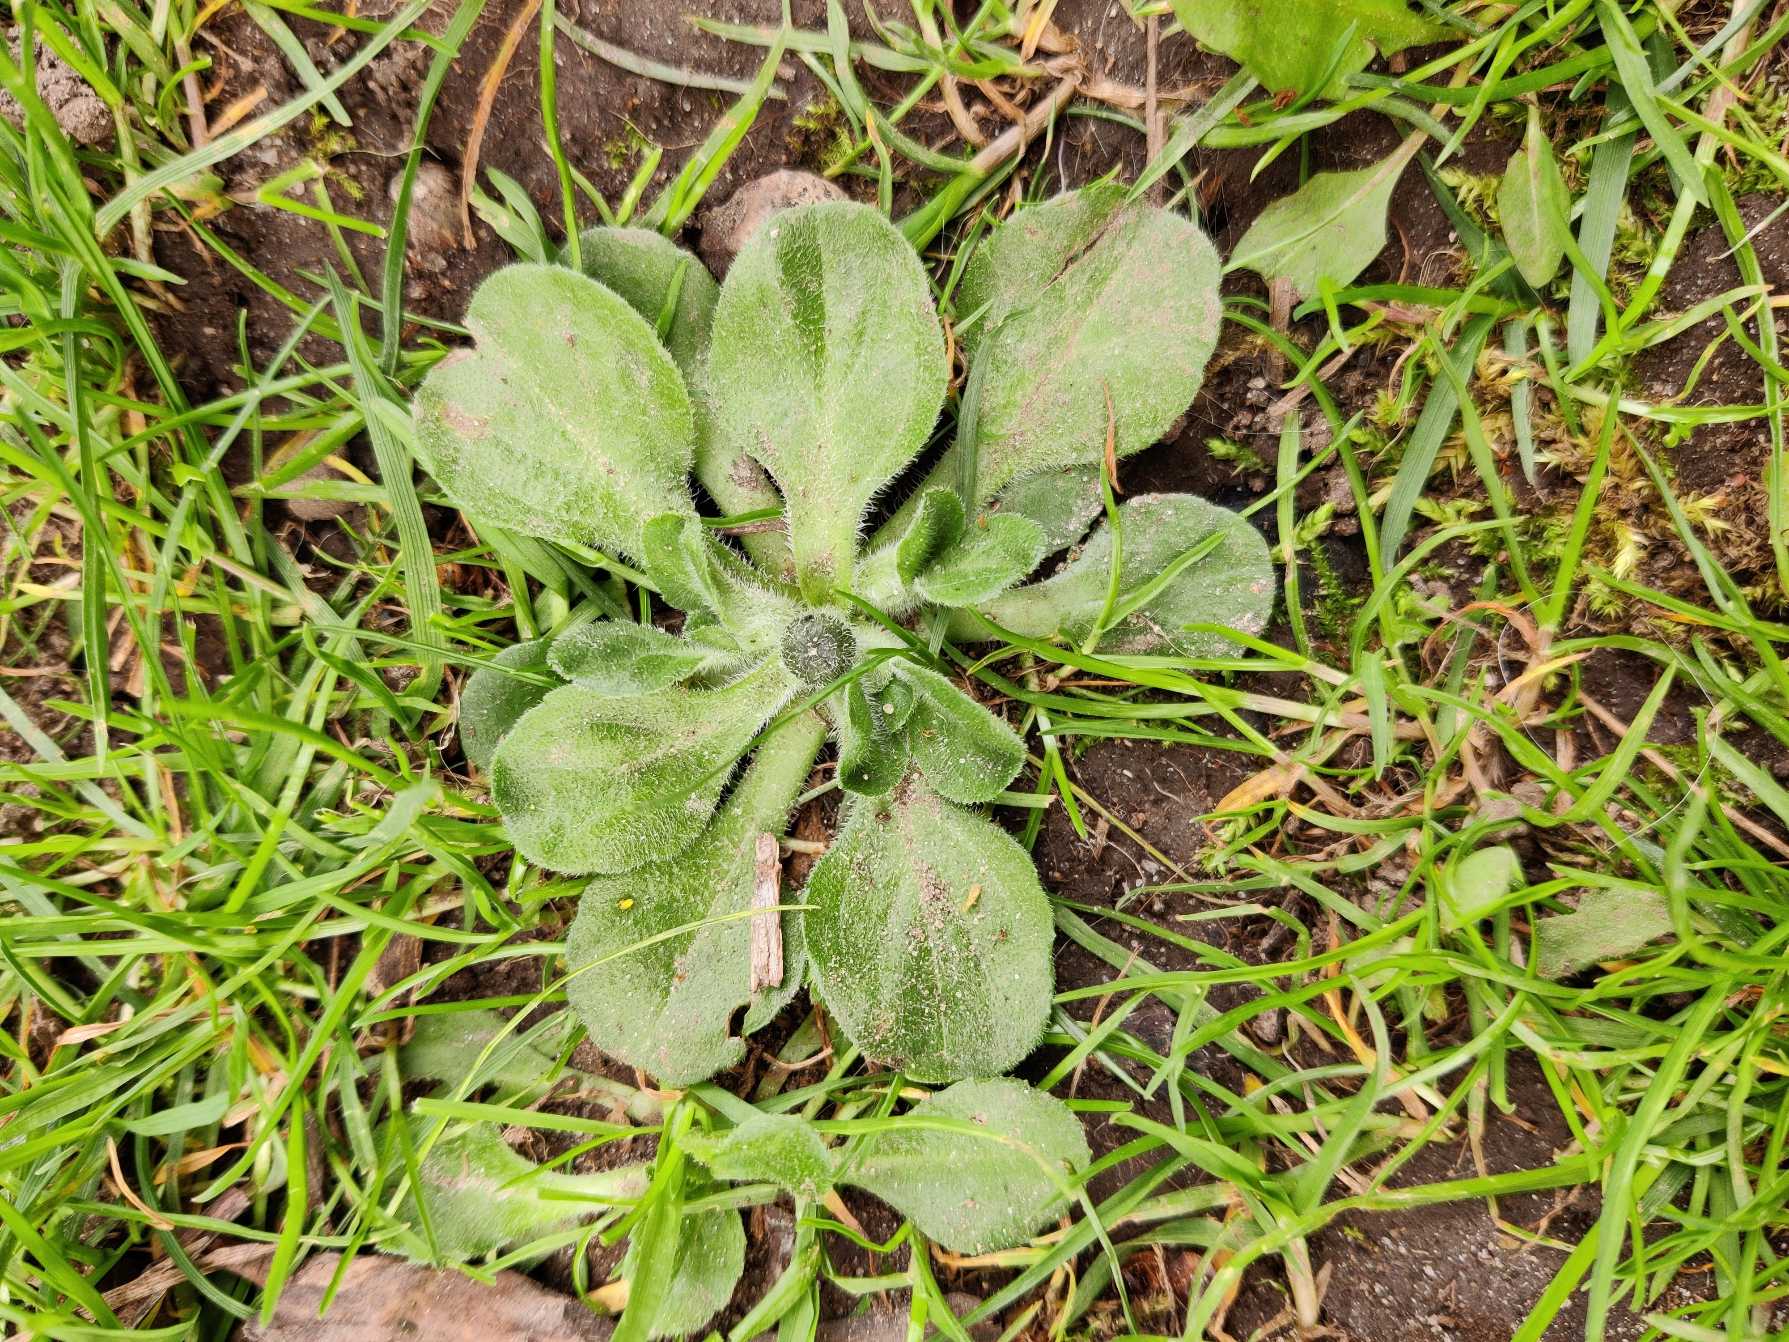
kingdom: Plantae
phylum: Tracheophyta
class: Magnoliopsida
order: Asterales
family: Asteraceae
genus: Bellis
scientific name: Bellis perennis
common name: Tusindfryd
